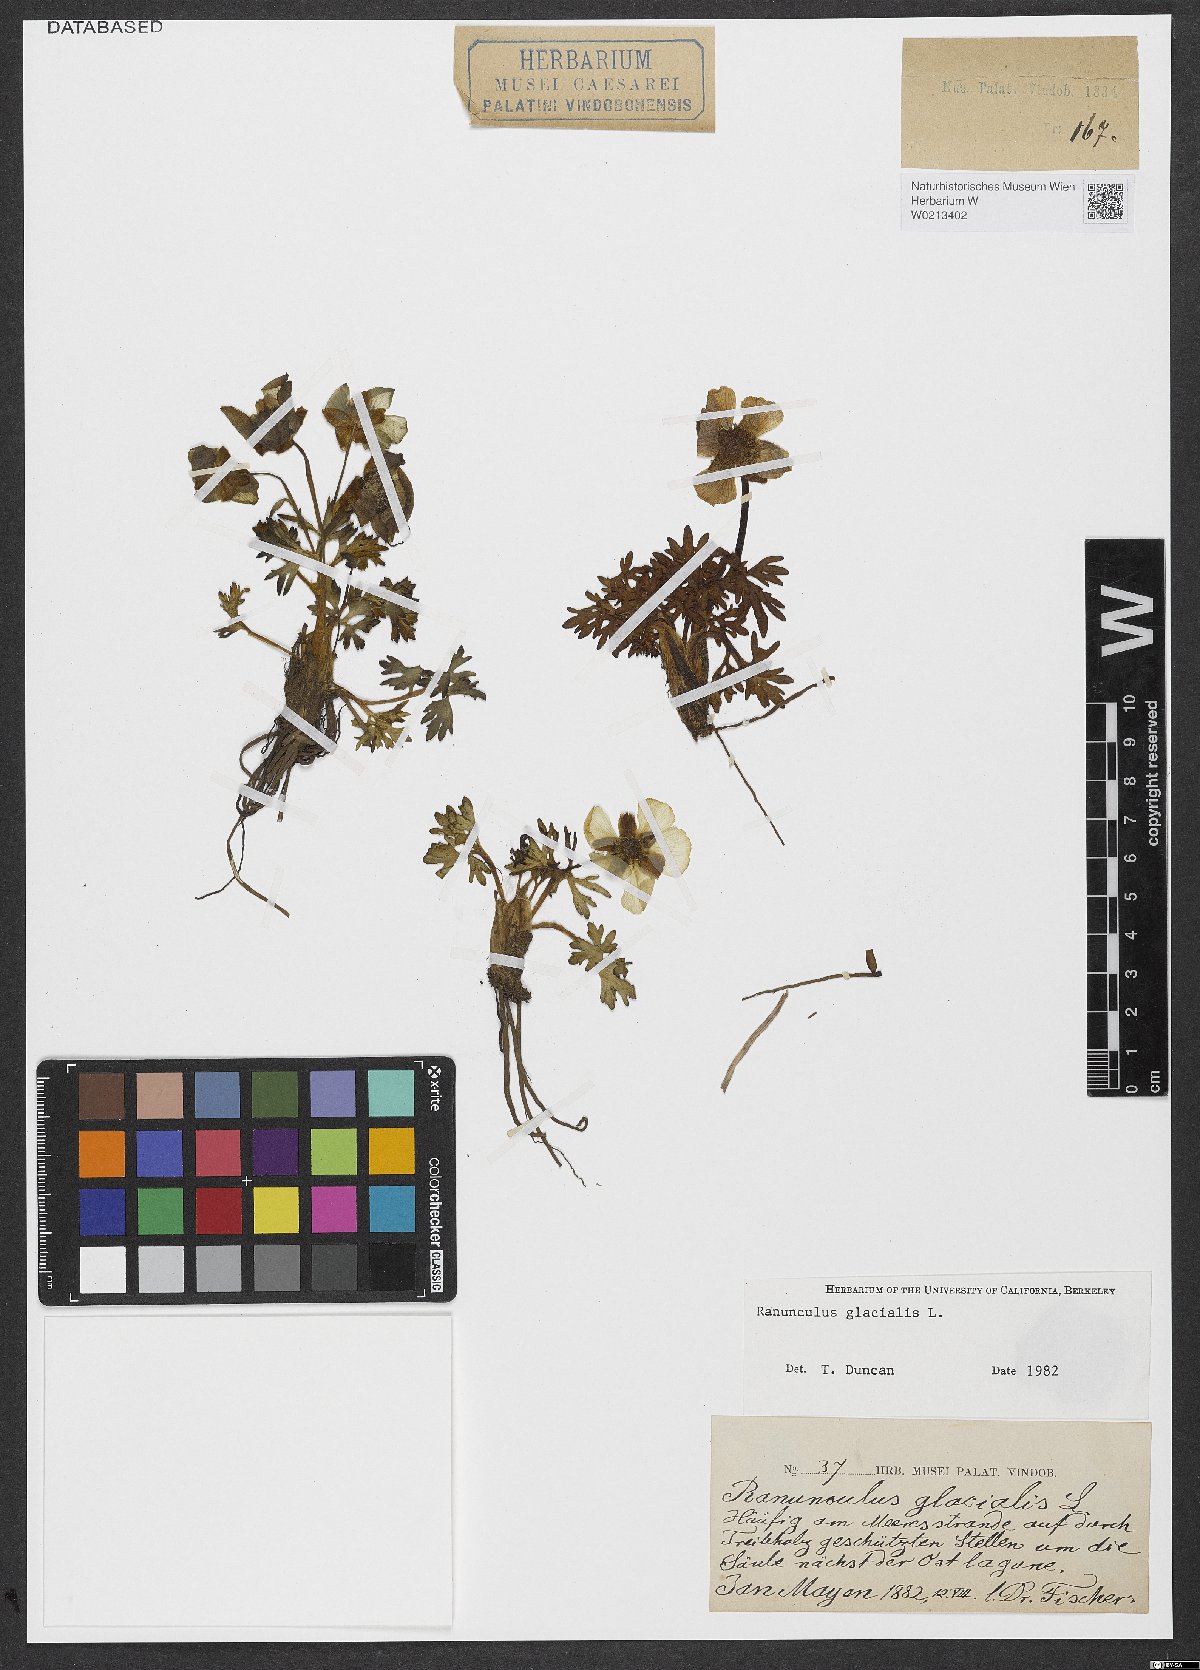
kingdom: Plantae
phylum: Tracheophyta
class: Magnoliopsida
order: Ranunculales
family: Ranunculaceae
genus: Ranunculus
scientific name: Ranunculus glacialis
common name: Glacier buttercup
